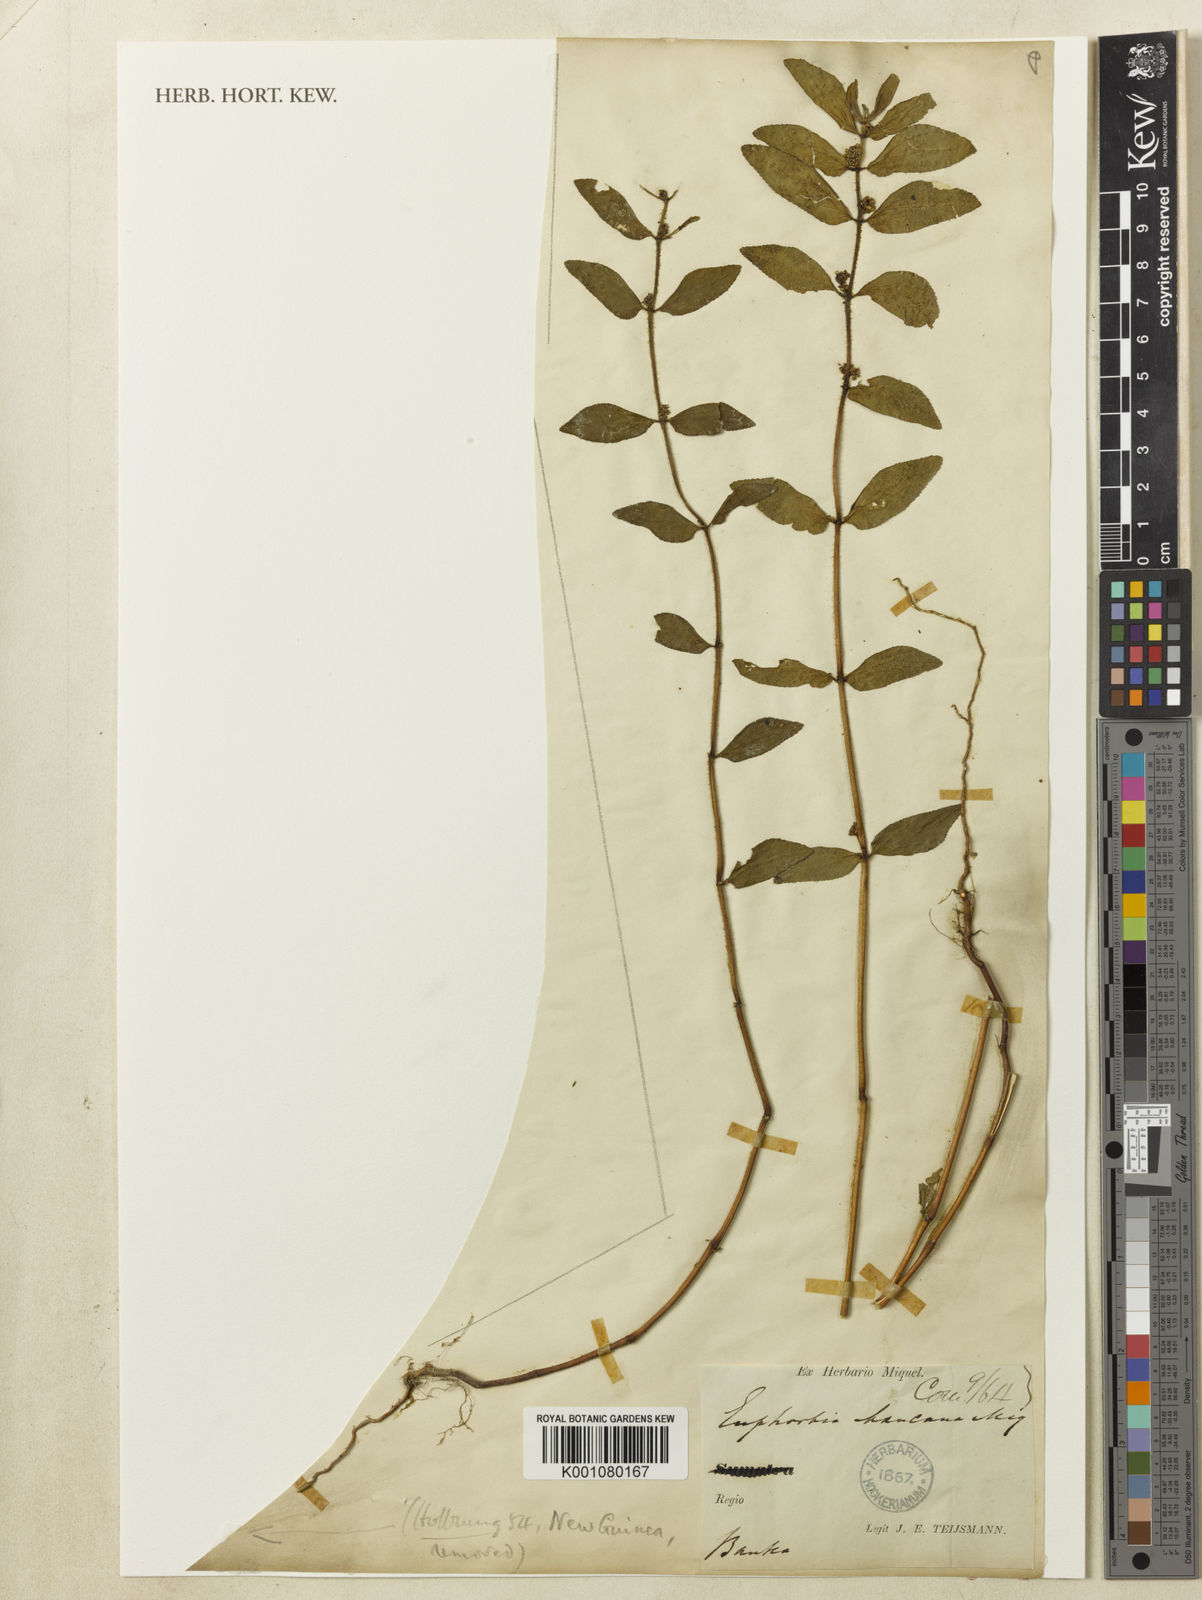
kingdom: Plantae
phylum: Tracheophyta
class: Magnoliopsida
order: Malpighiales
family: Euphorbiaceae
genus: Euphorbia
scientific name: Euphorbia hirta
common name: Pillpod sandmat
